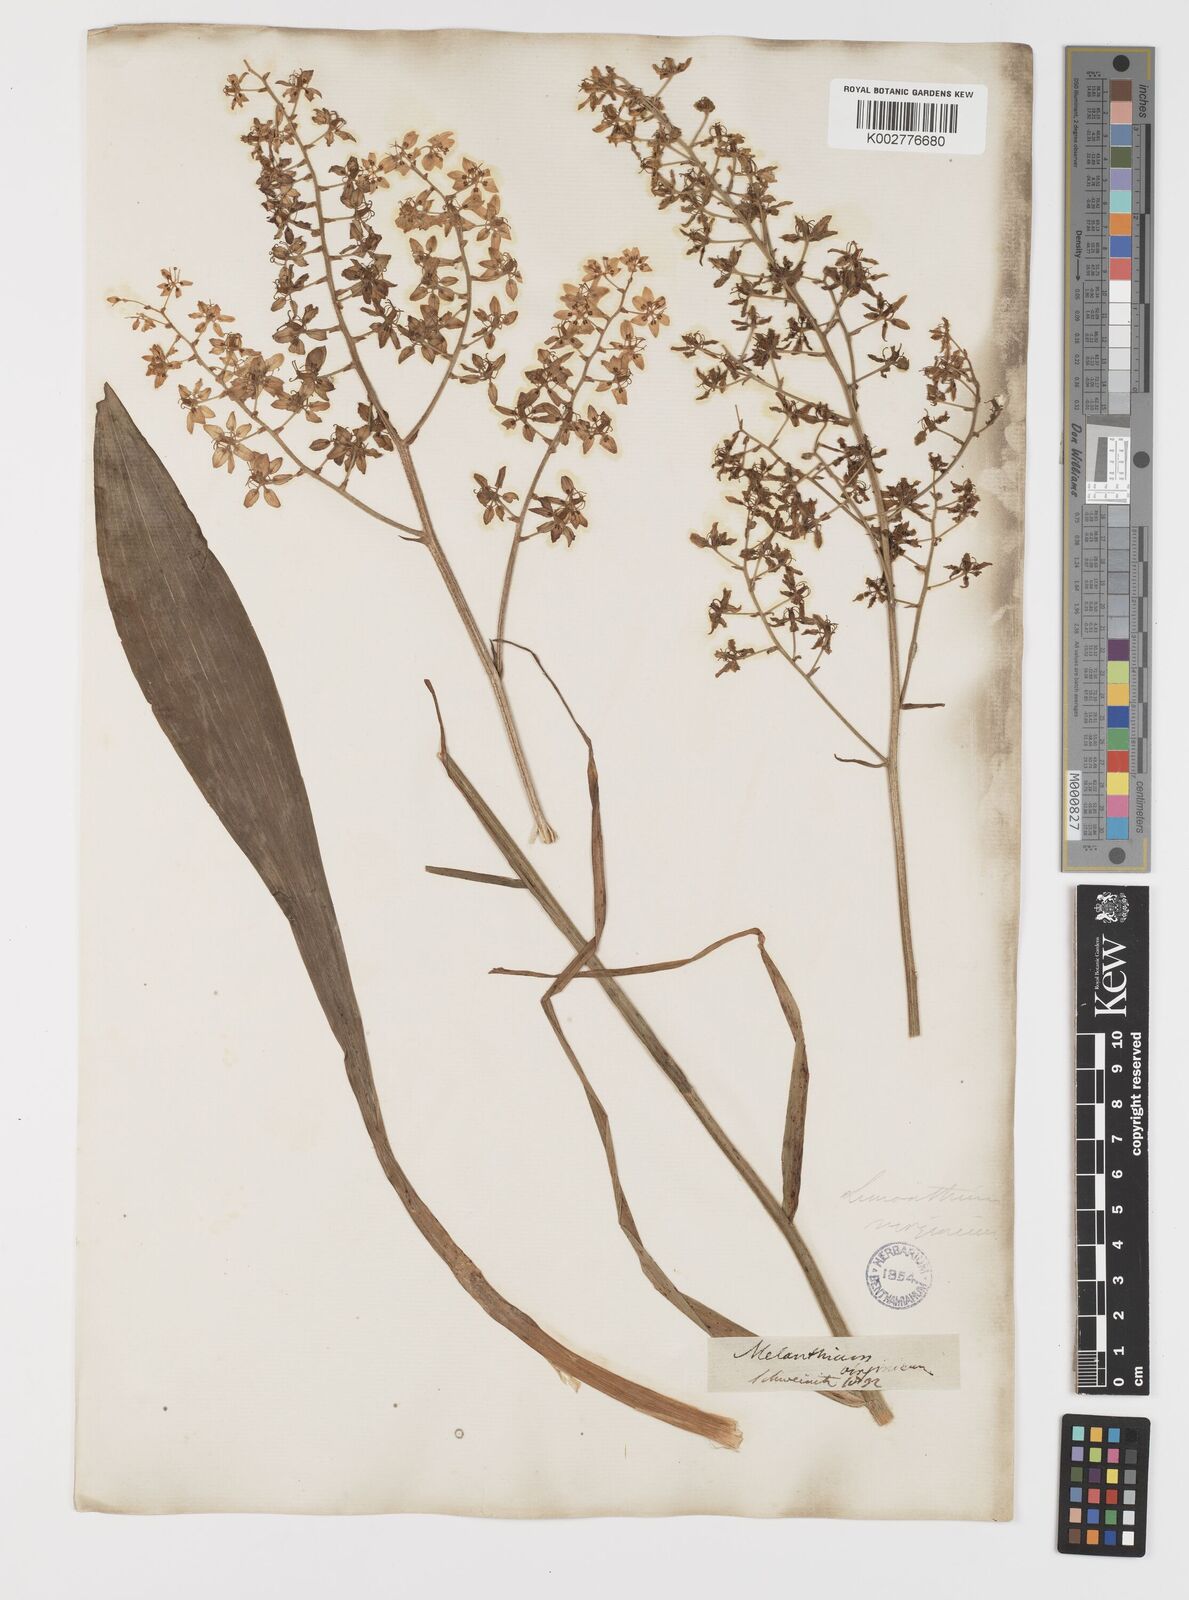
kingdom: Plantae
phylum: Tracheophyta
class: Liliopsida
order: Liliales
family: Melanthiaceae
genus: Melanthium
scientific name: Melanthium virginicum
